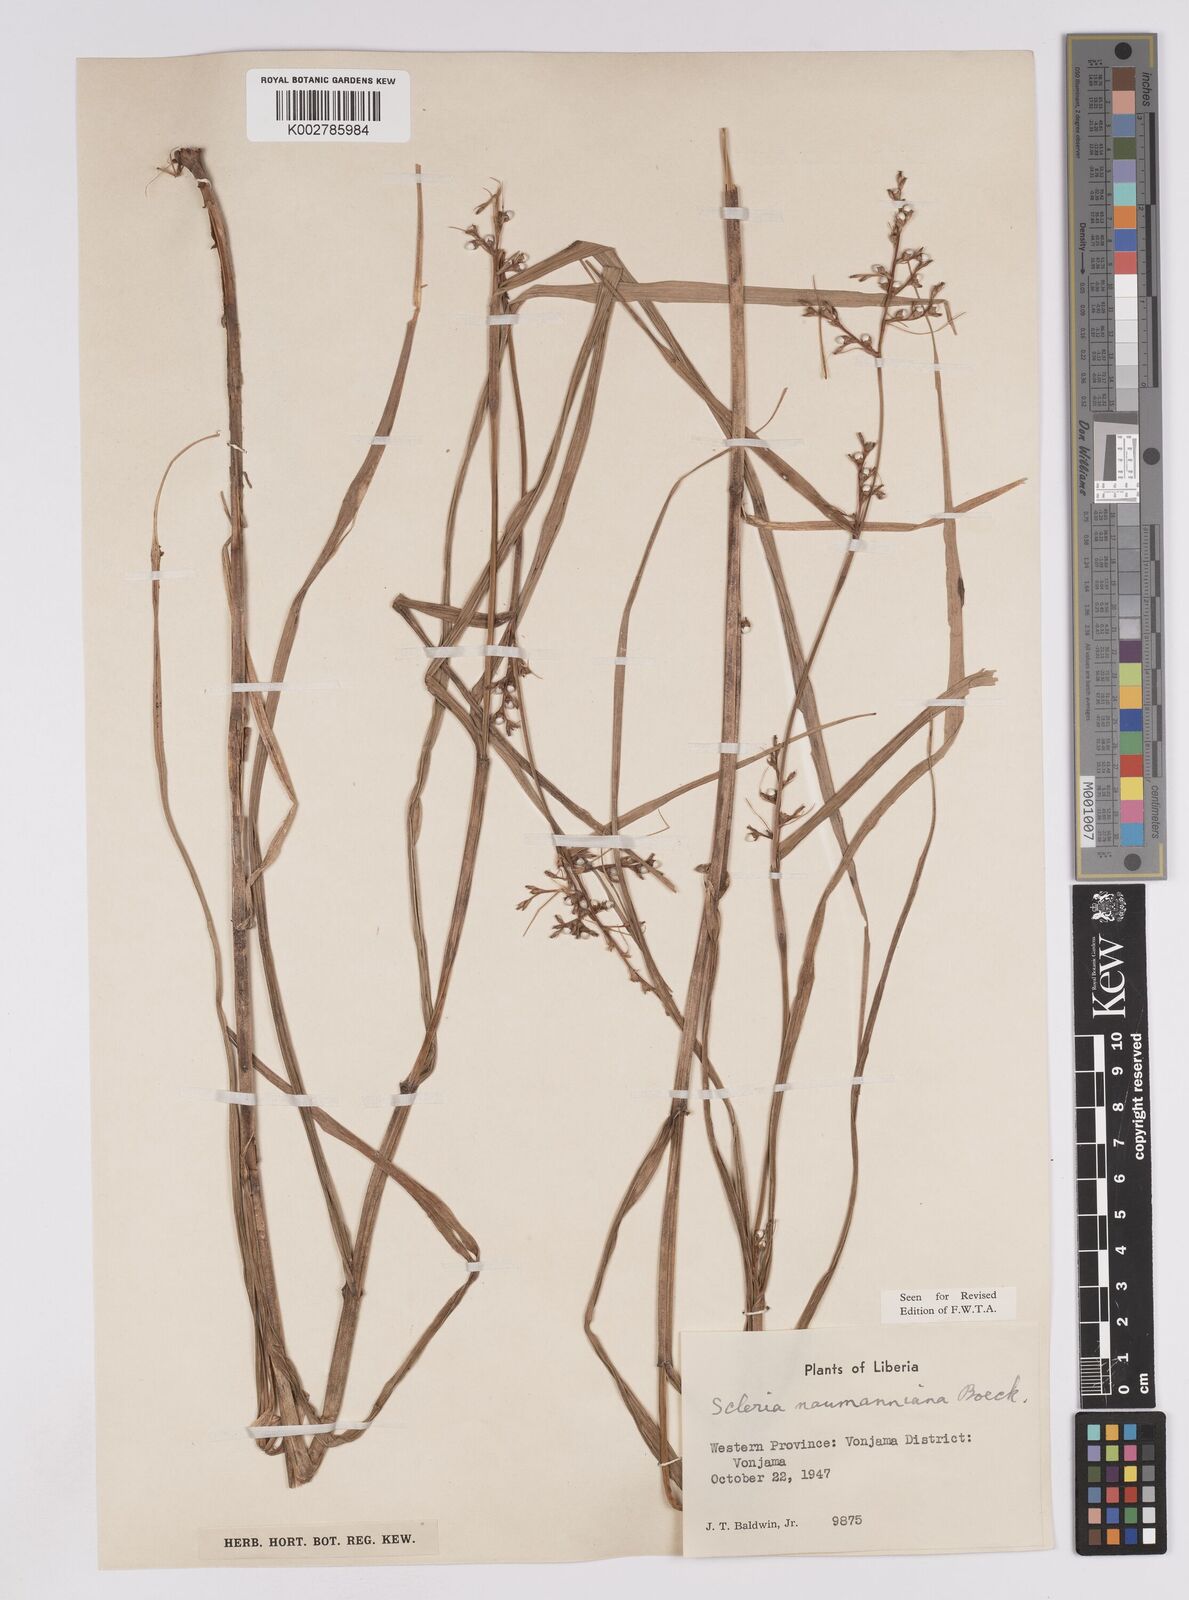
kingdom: Plantae
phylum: Tracheophyta
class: Liliopsida
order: Poales
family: Cyperaceae
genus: Scleria
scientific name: Scleria naumanniana
